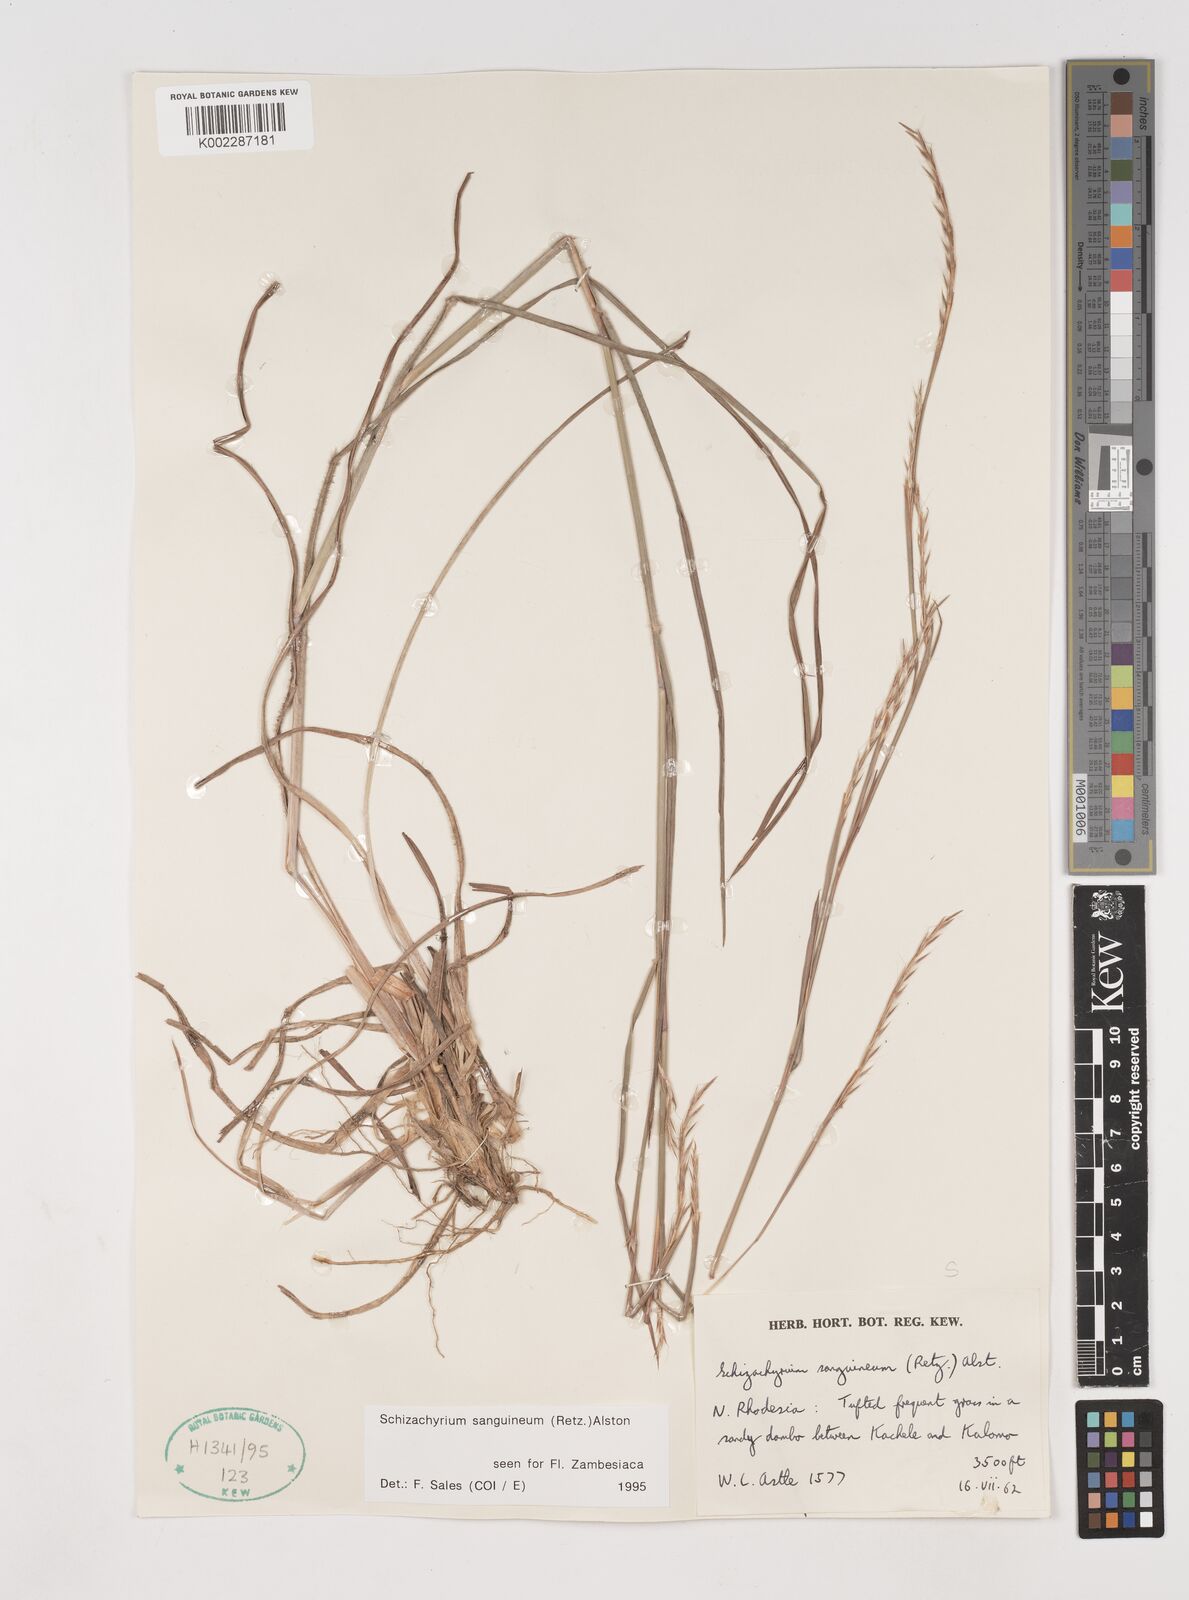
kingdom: Plantae
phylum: Tracheophyta
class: Liliopsida
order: Poales
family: Poaceae
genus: Schizachyrium
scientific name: Schizachyrium sanguineum
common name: Crimson bluestem
